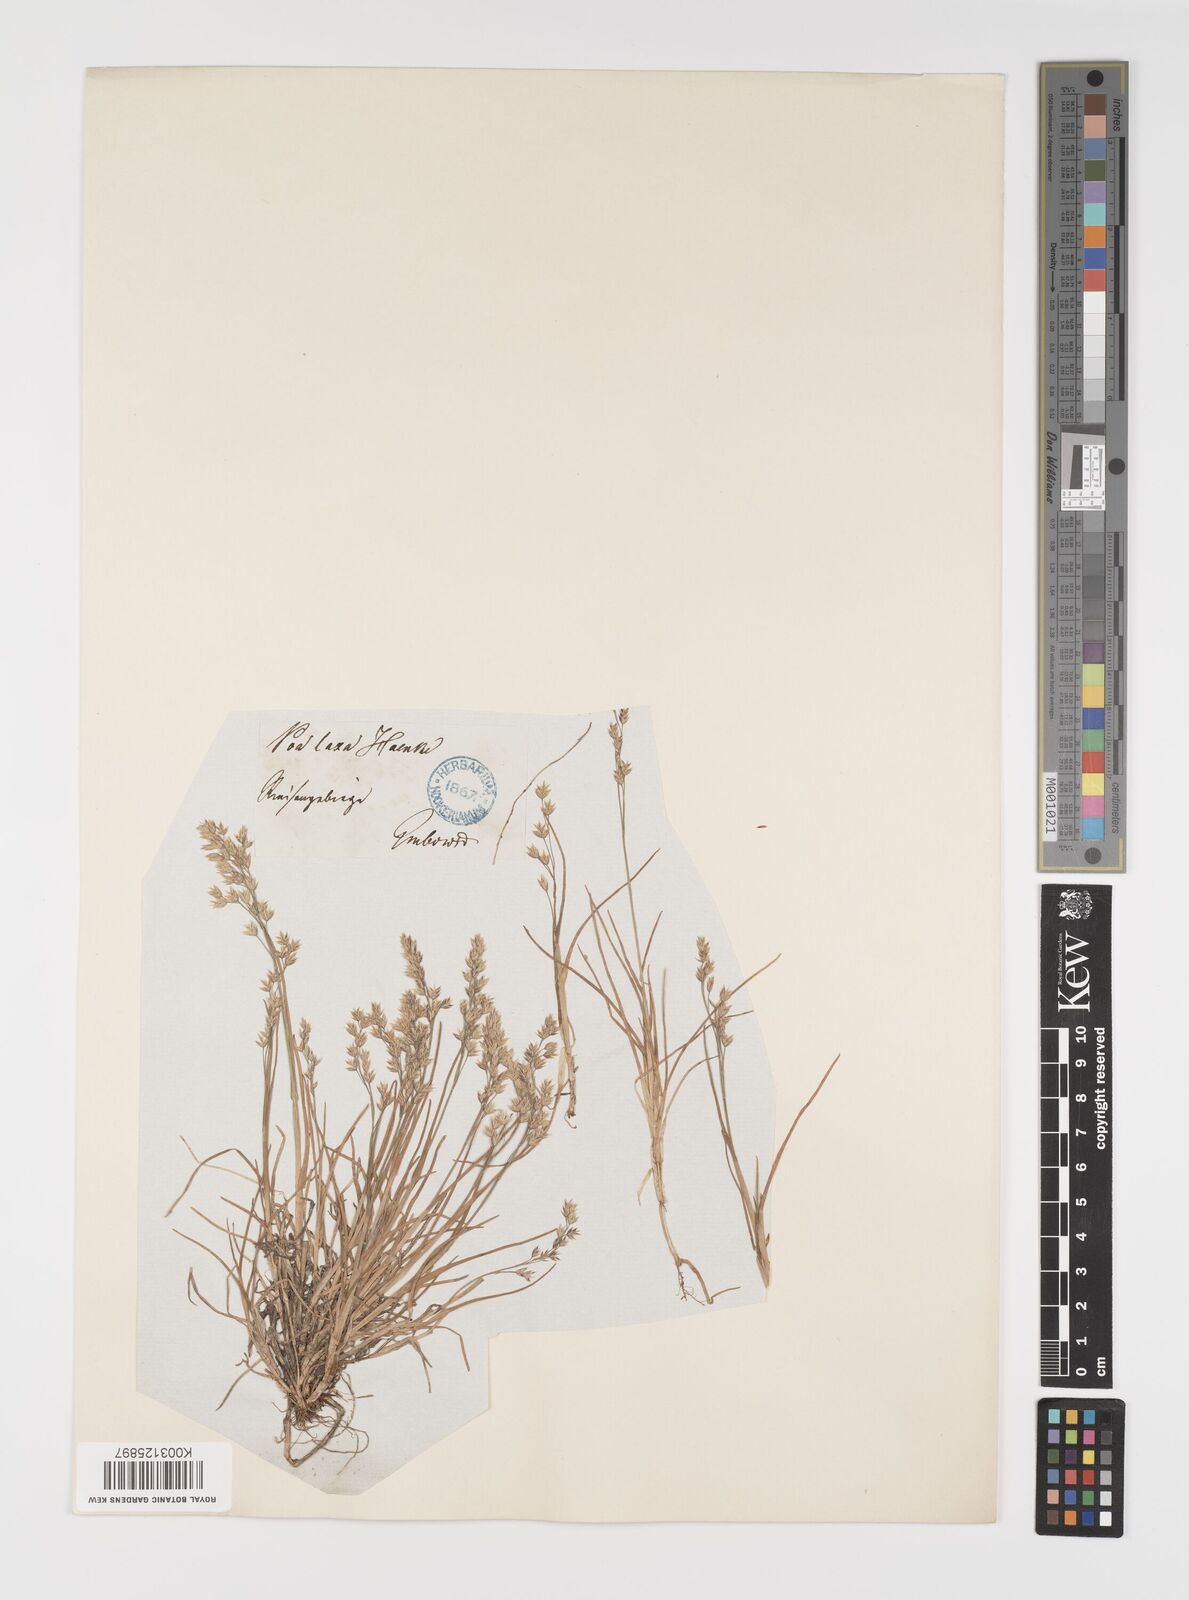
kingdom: Plantae
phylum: Tracheophyta
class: Liliopsida
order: Poales
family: Poaceae
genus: Poa
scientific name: Poa laxa
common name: Lax bluegrass
